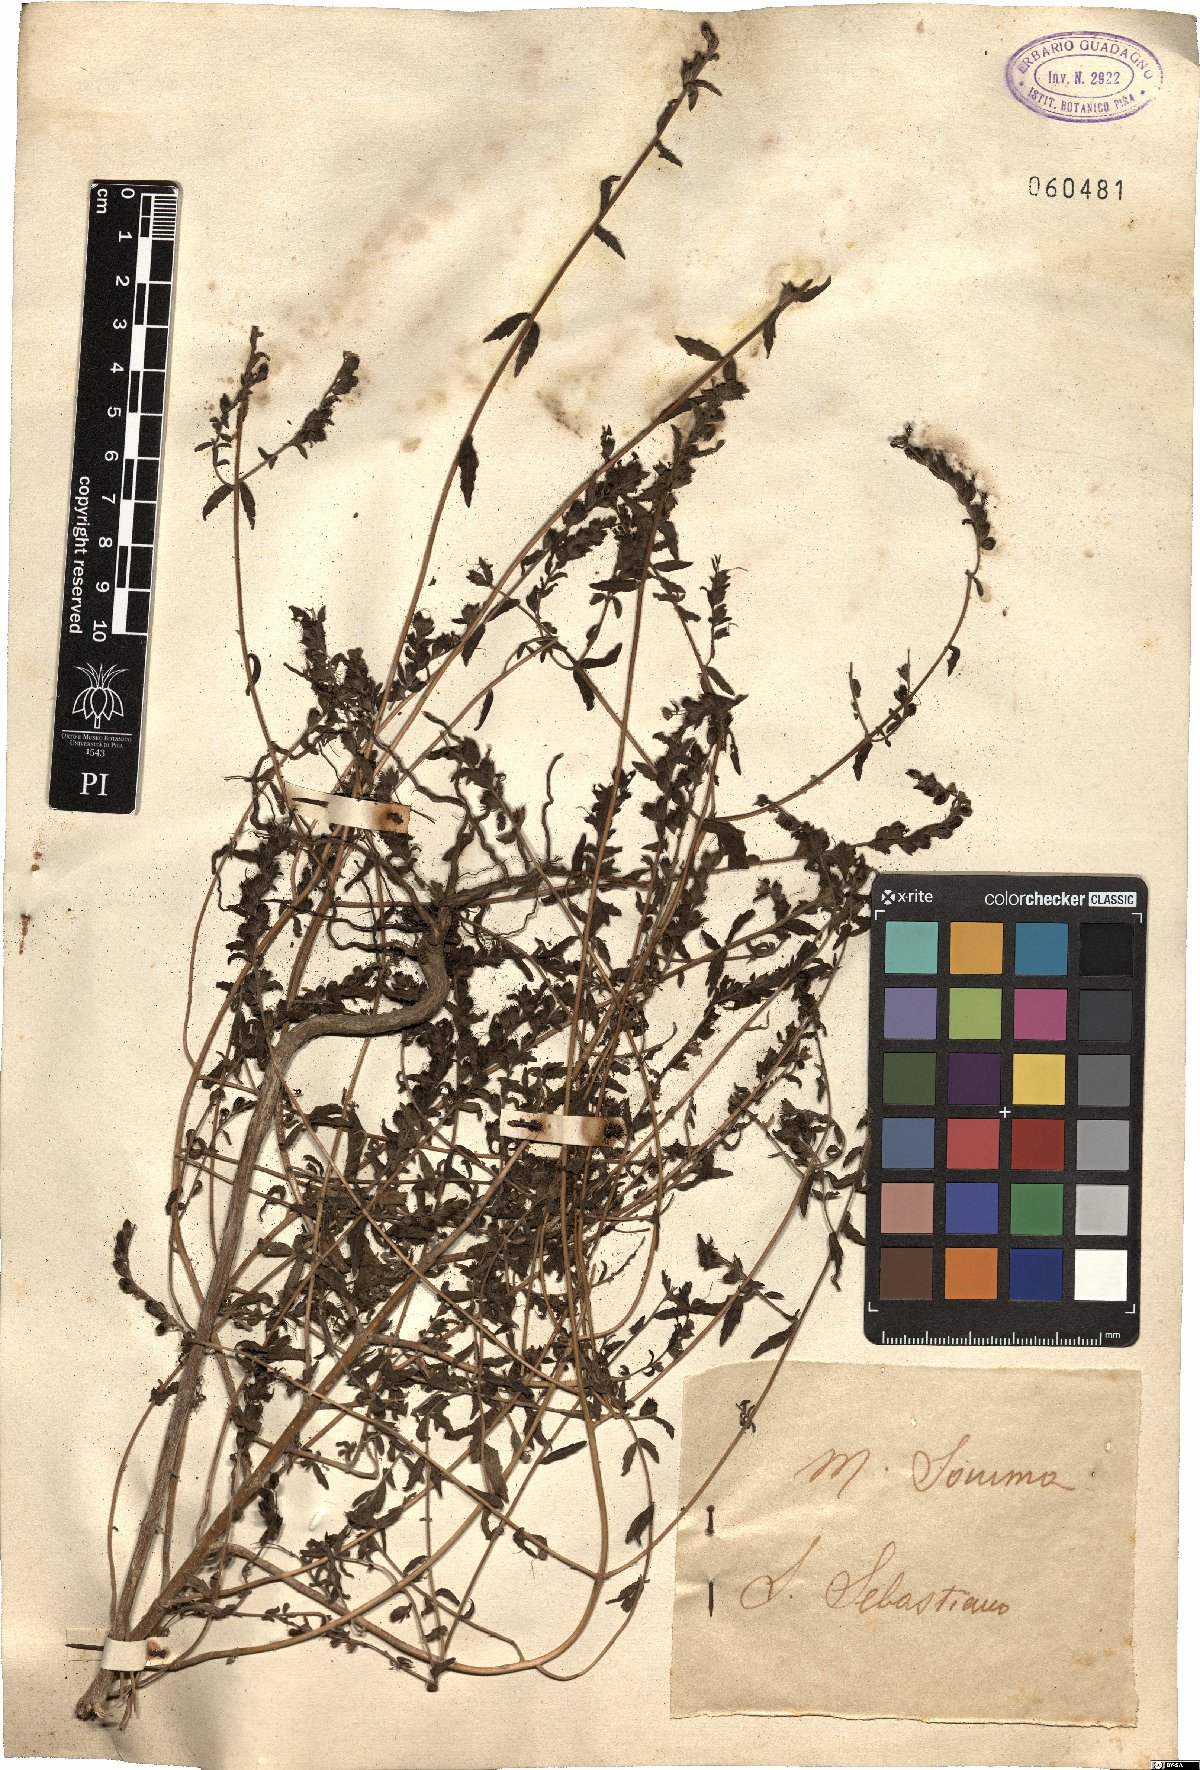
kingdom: Plantae
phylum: Tracheophyta
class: Magnoliopsida
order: Lamiales
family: Orobanchaceae
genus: Bellardia
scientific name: Bellardia viscosa
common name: Sticky parentucellia
